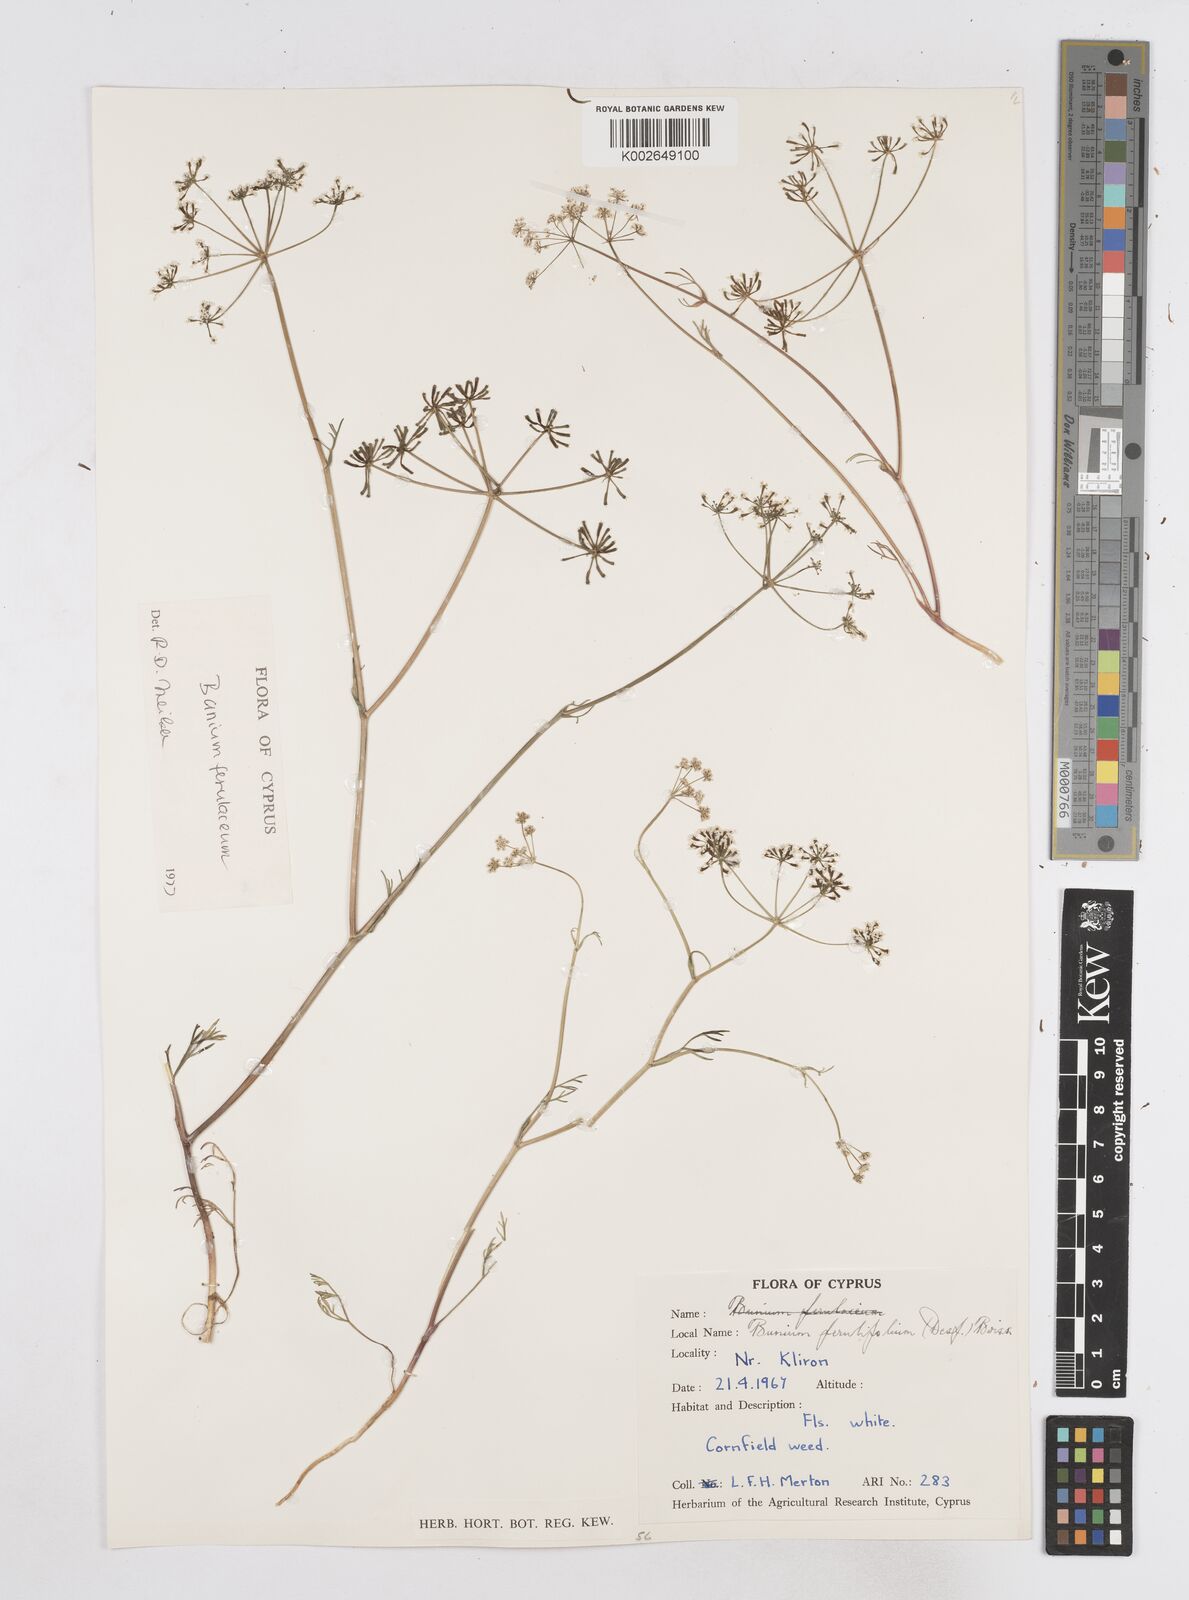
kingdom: Plantae
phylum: Tracheophyta
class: Magnoliopsida
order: Apiales
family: Apiaceae
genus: Bunium
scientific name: Bunium ferulaceum
